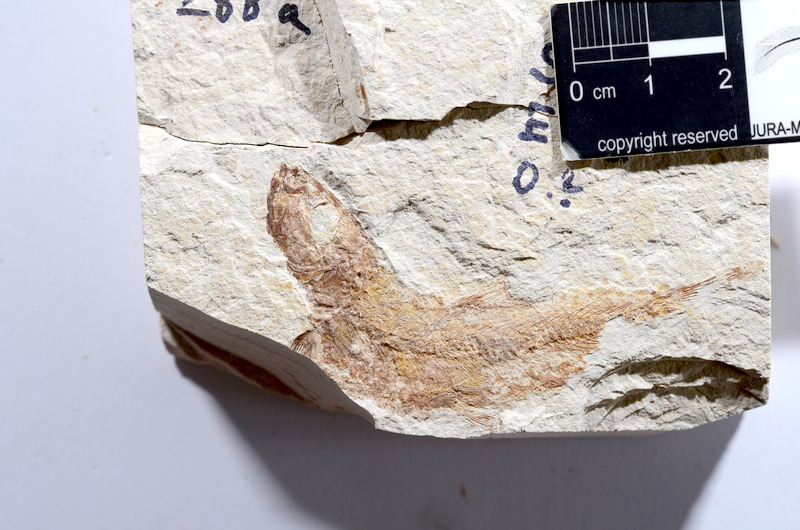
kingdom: Animalia
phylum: Chordata
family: Ascalaboidae
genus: Tharsis
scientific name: Tharsis dubius
